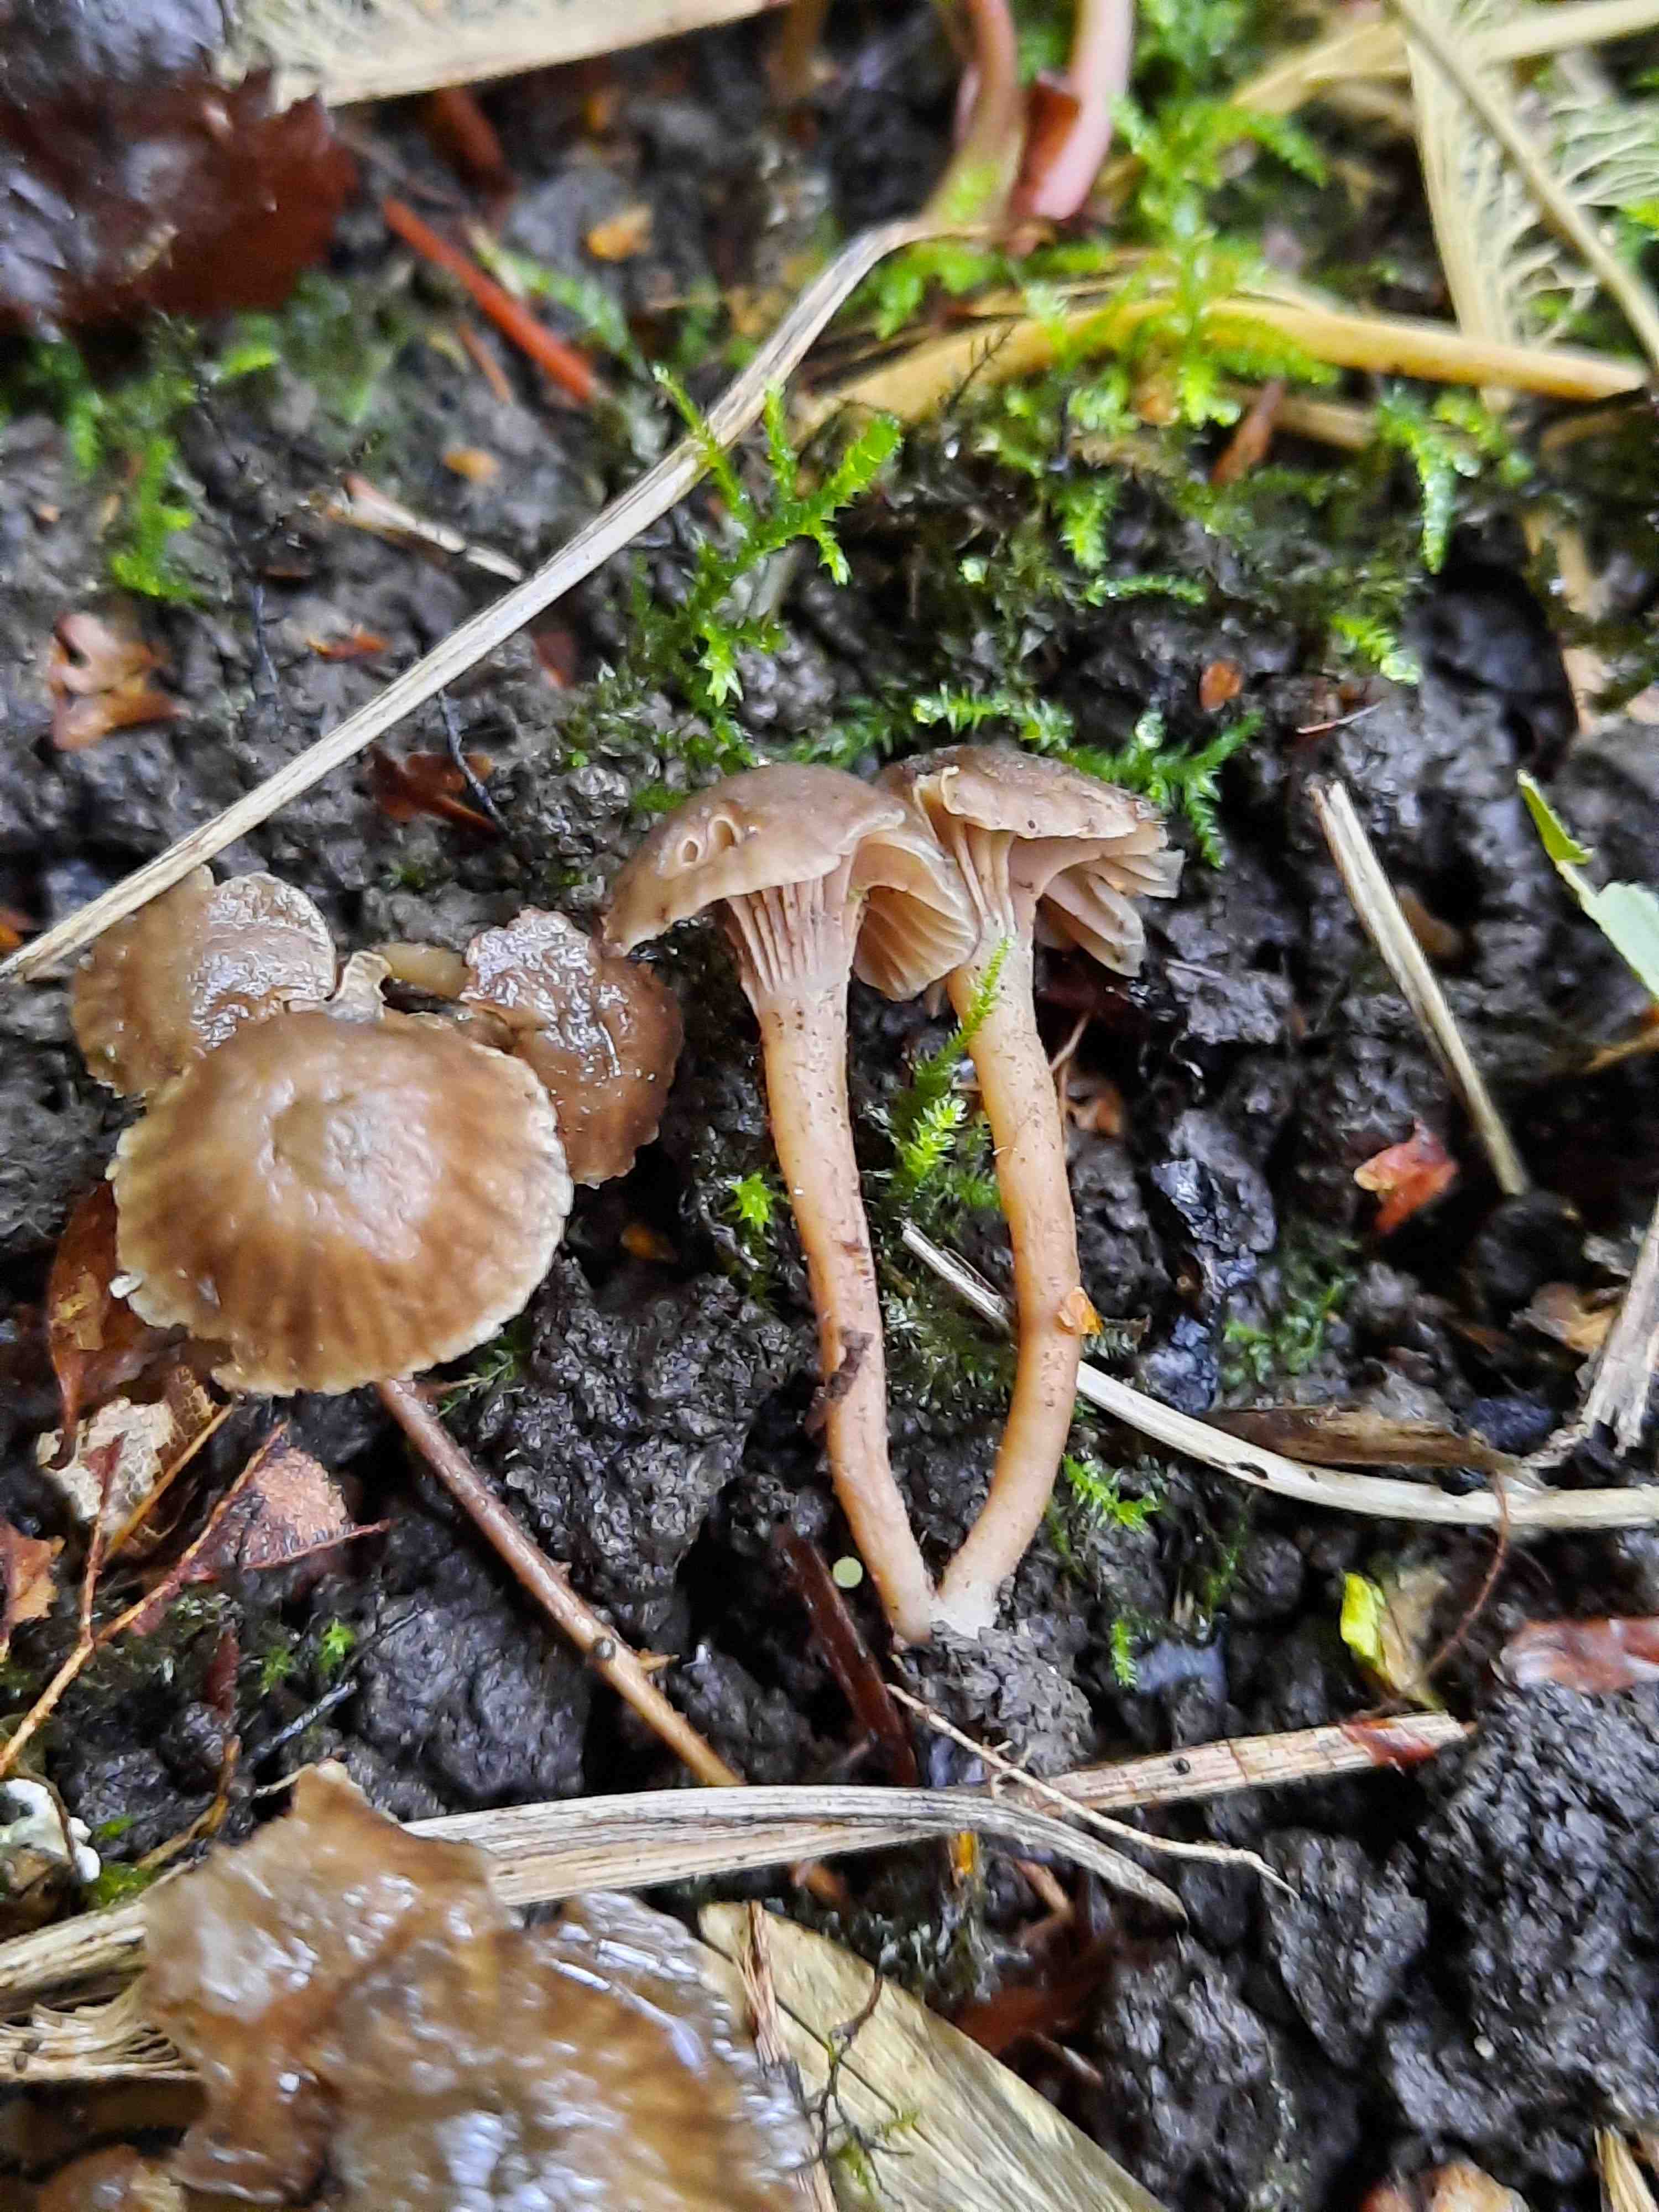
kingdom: Fungi
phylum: Basidiomycota
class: Agaricomycetes
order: Agaricales
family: Clavariaceae
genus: Hodophilus
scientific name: Hodophilus
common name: kratvokshat
